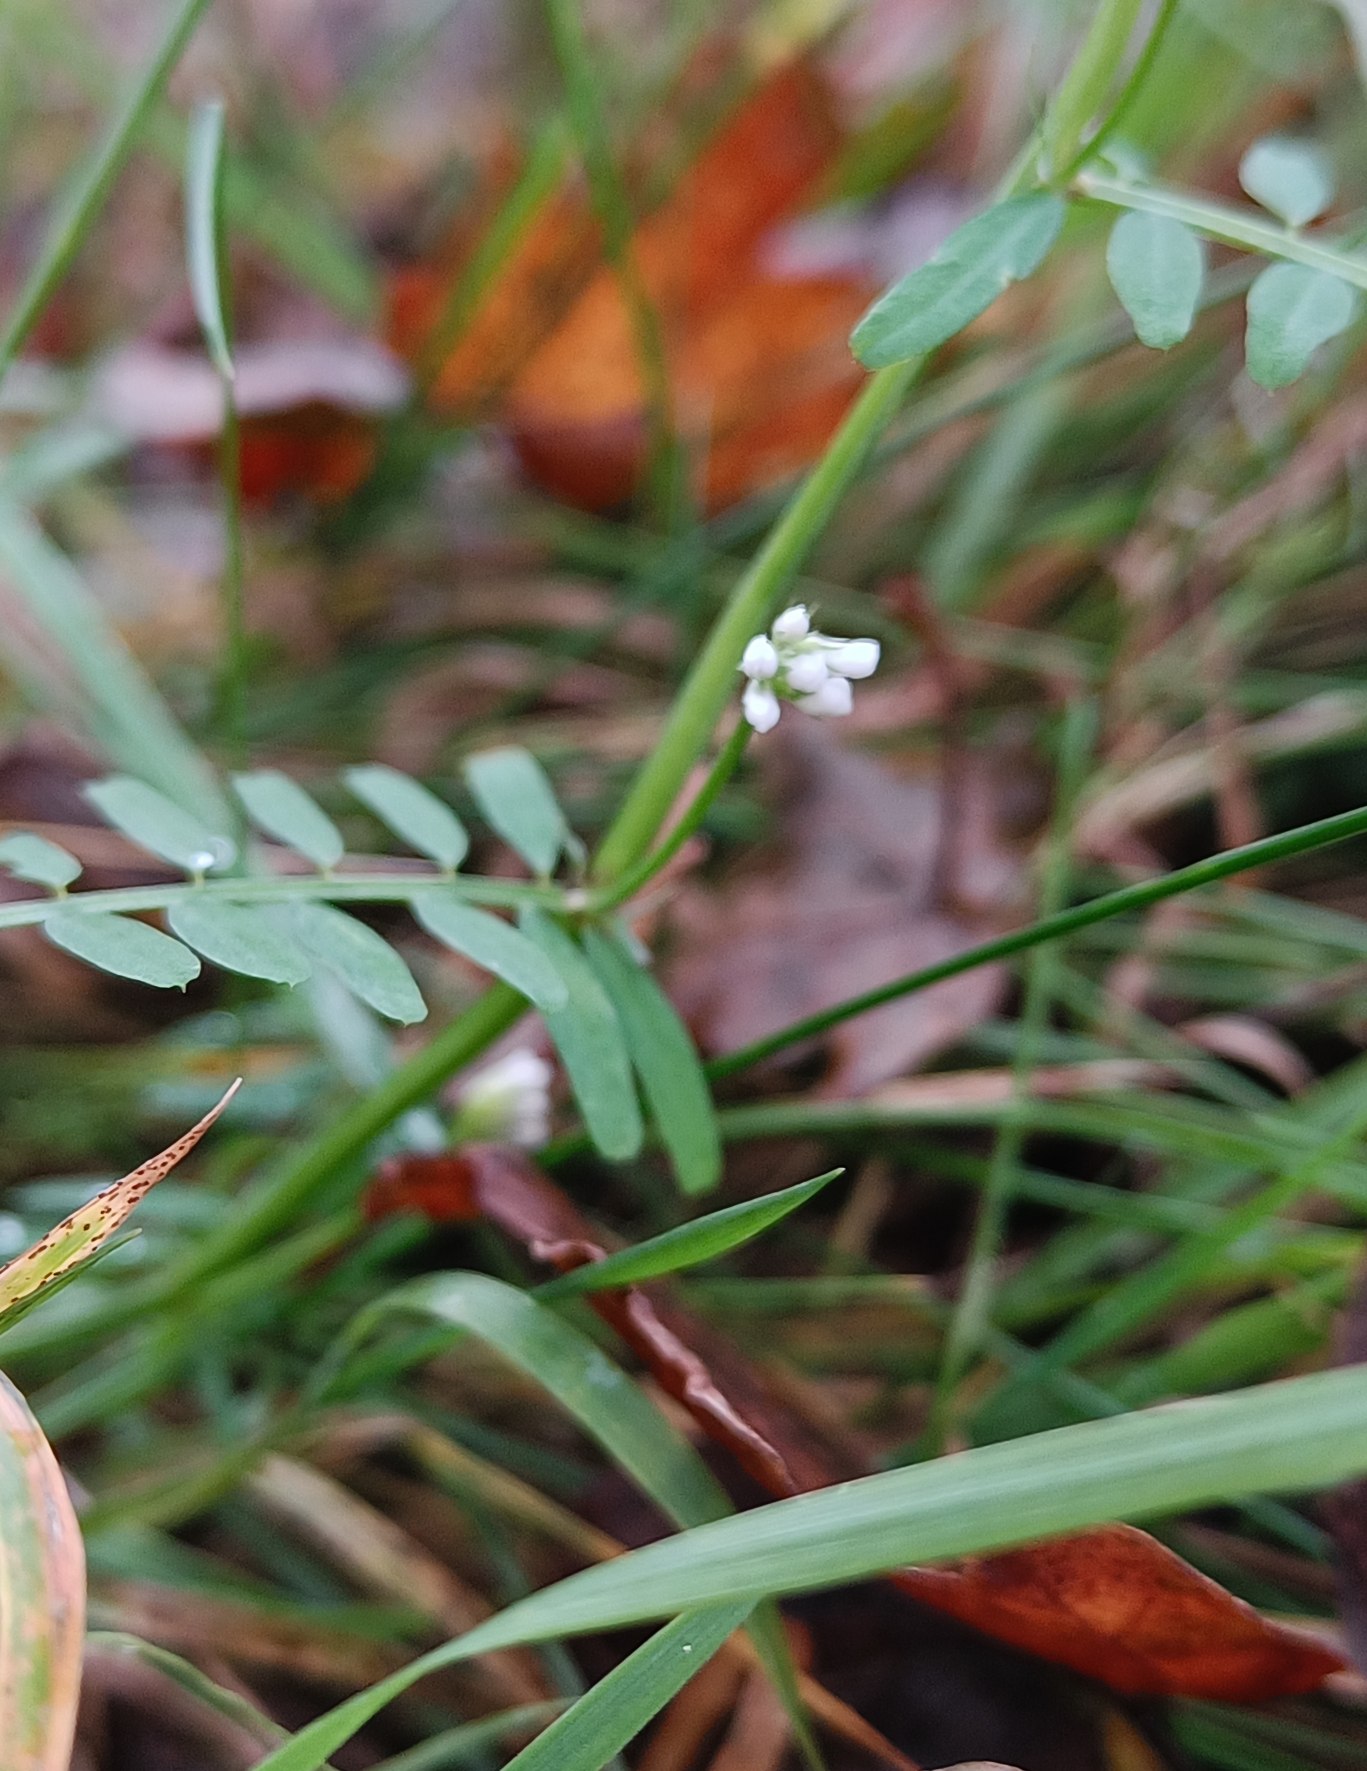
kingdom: Plantae
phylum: Tracheophyta
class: Magnoliopsida
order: Fabales
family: Fabaceae
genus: Vicia
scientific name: Vicia hirsuta
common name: Tofrøet vikke
